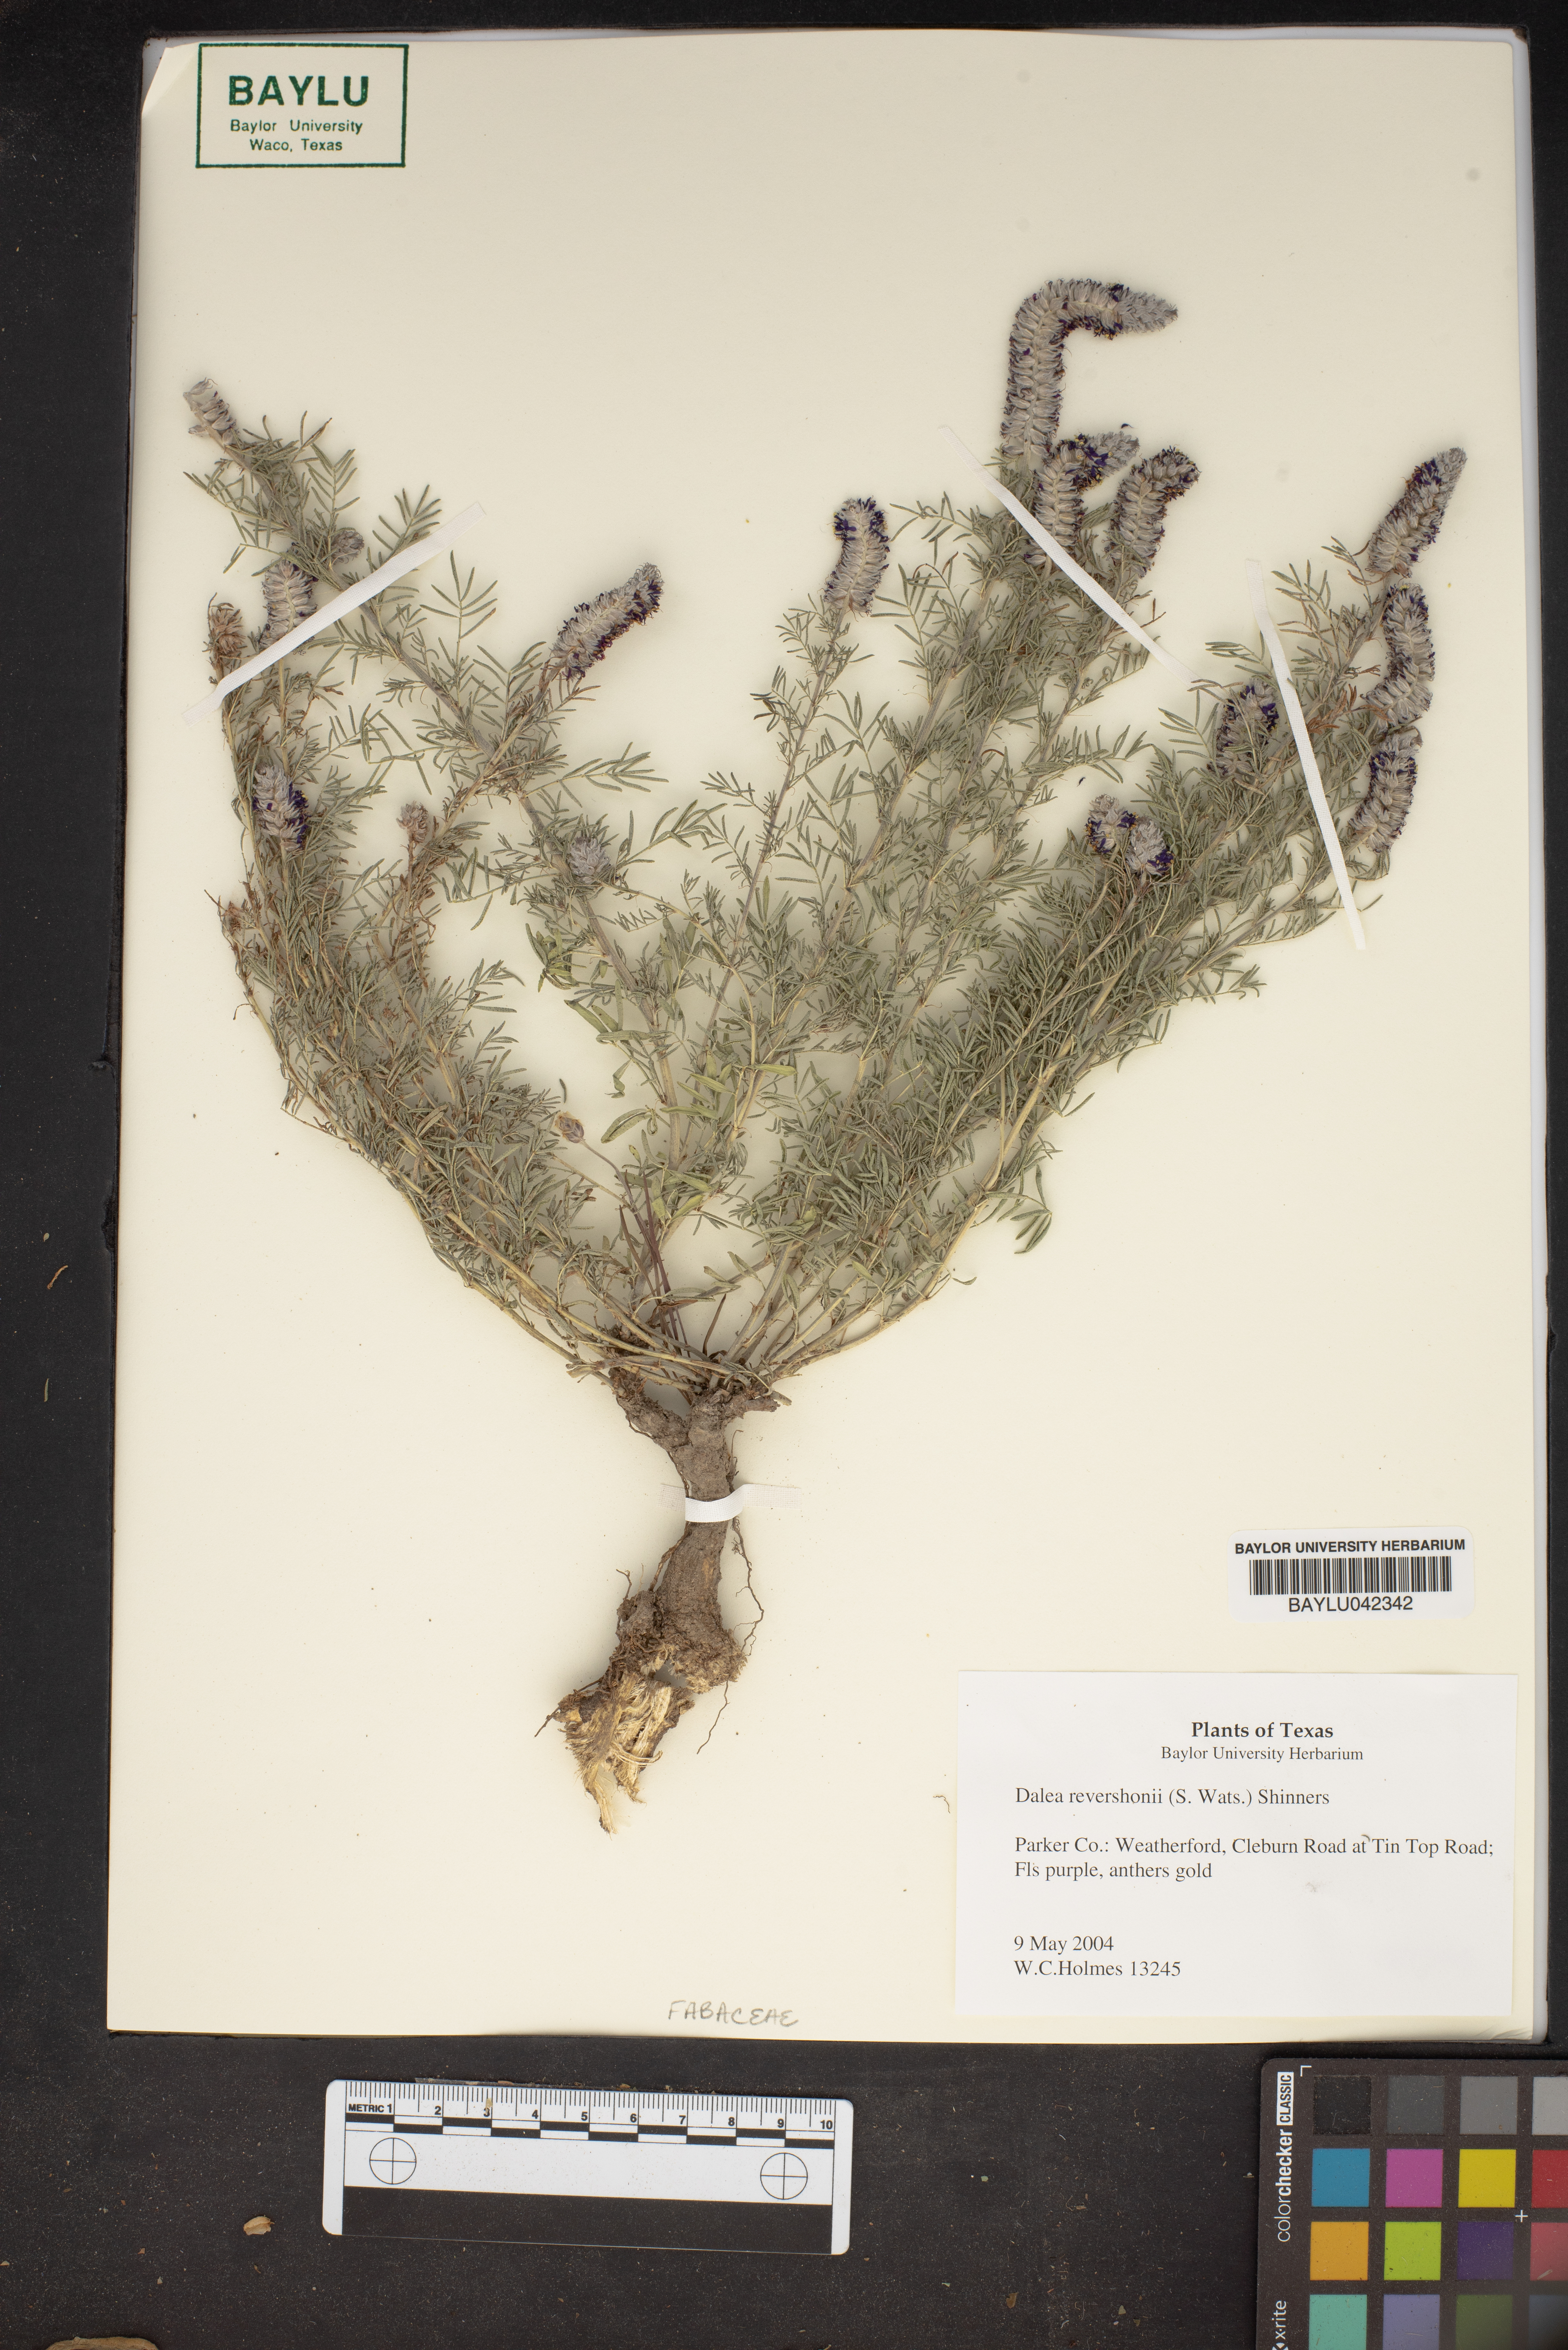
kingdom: Plantae
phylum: Tracheophyta
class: Magnoliopsida
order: Fabales
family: Fabaceae
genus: Dalea
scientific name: Dalea reverchonii
